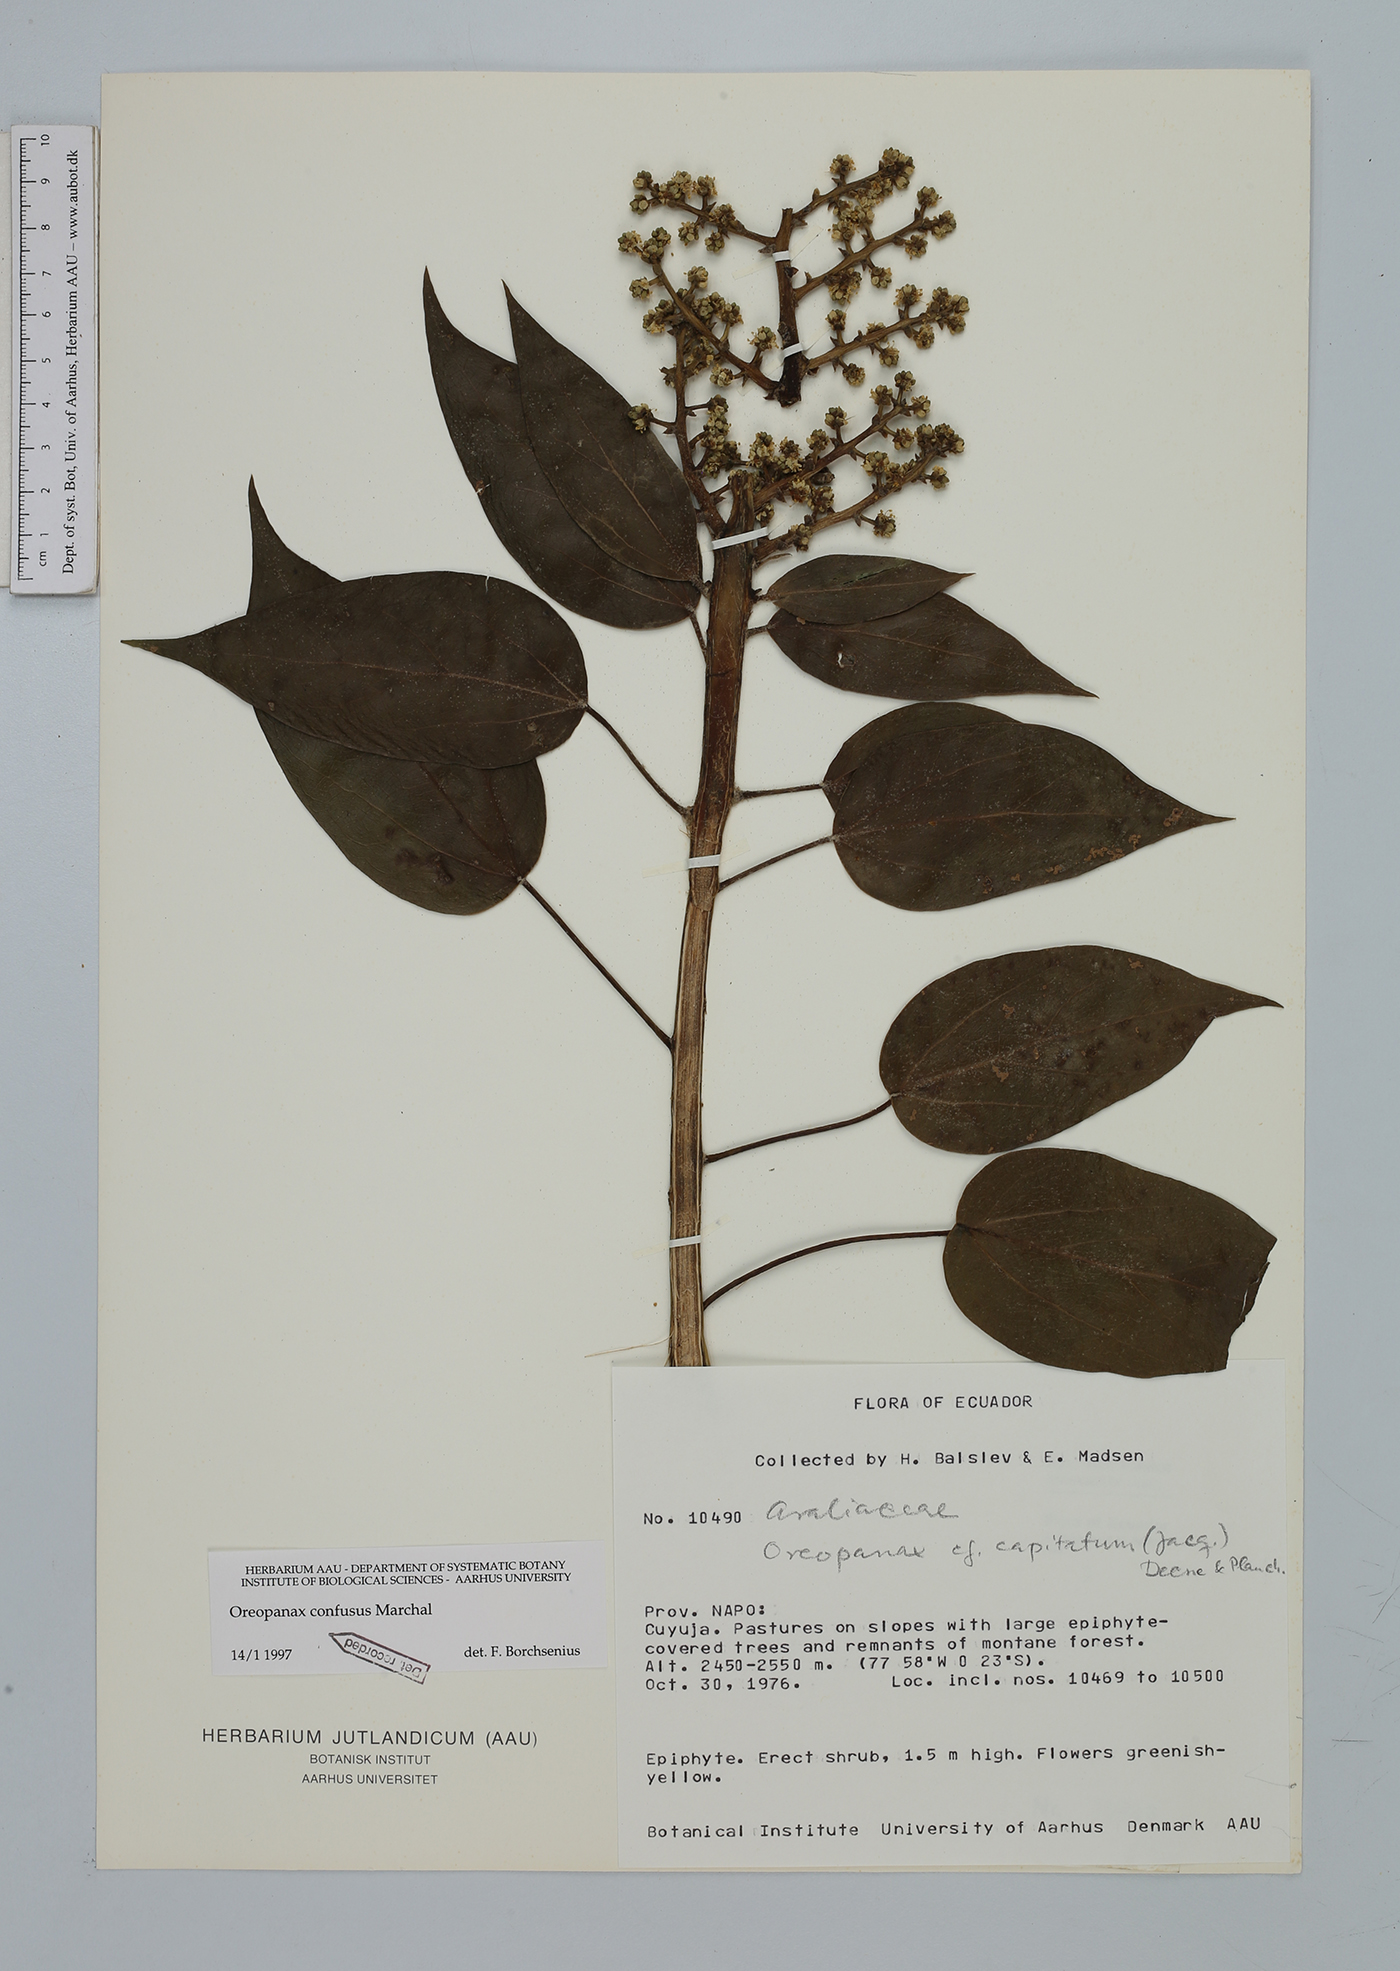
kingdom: Plantae
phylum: Tracheophyta
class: Magnoliopsida
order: Apiales
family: Araliaceae
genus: Oreopanax
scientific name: Oreopanax confusus
